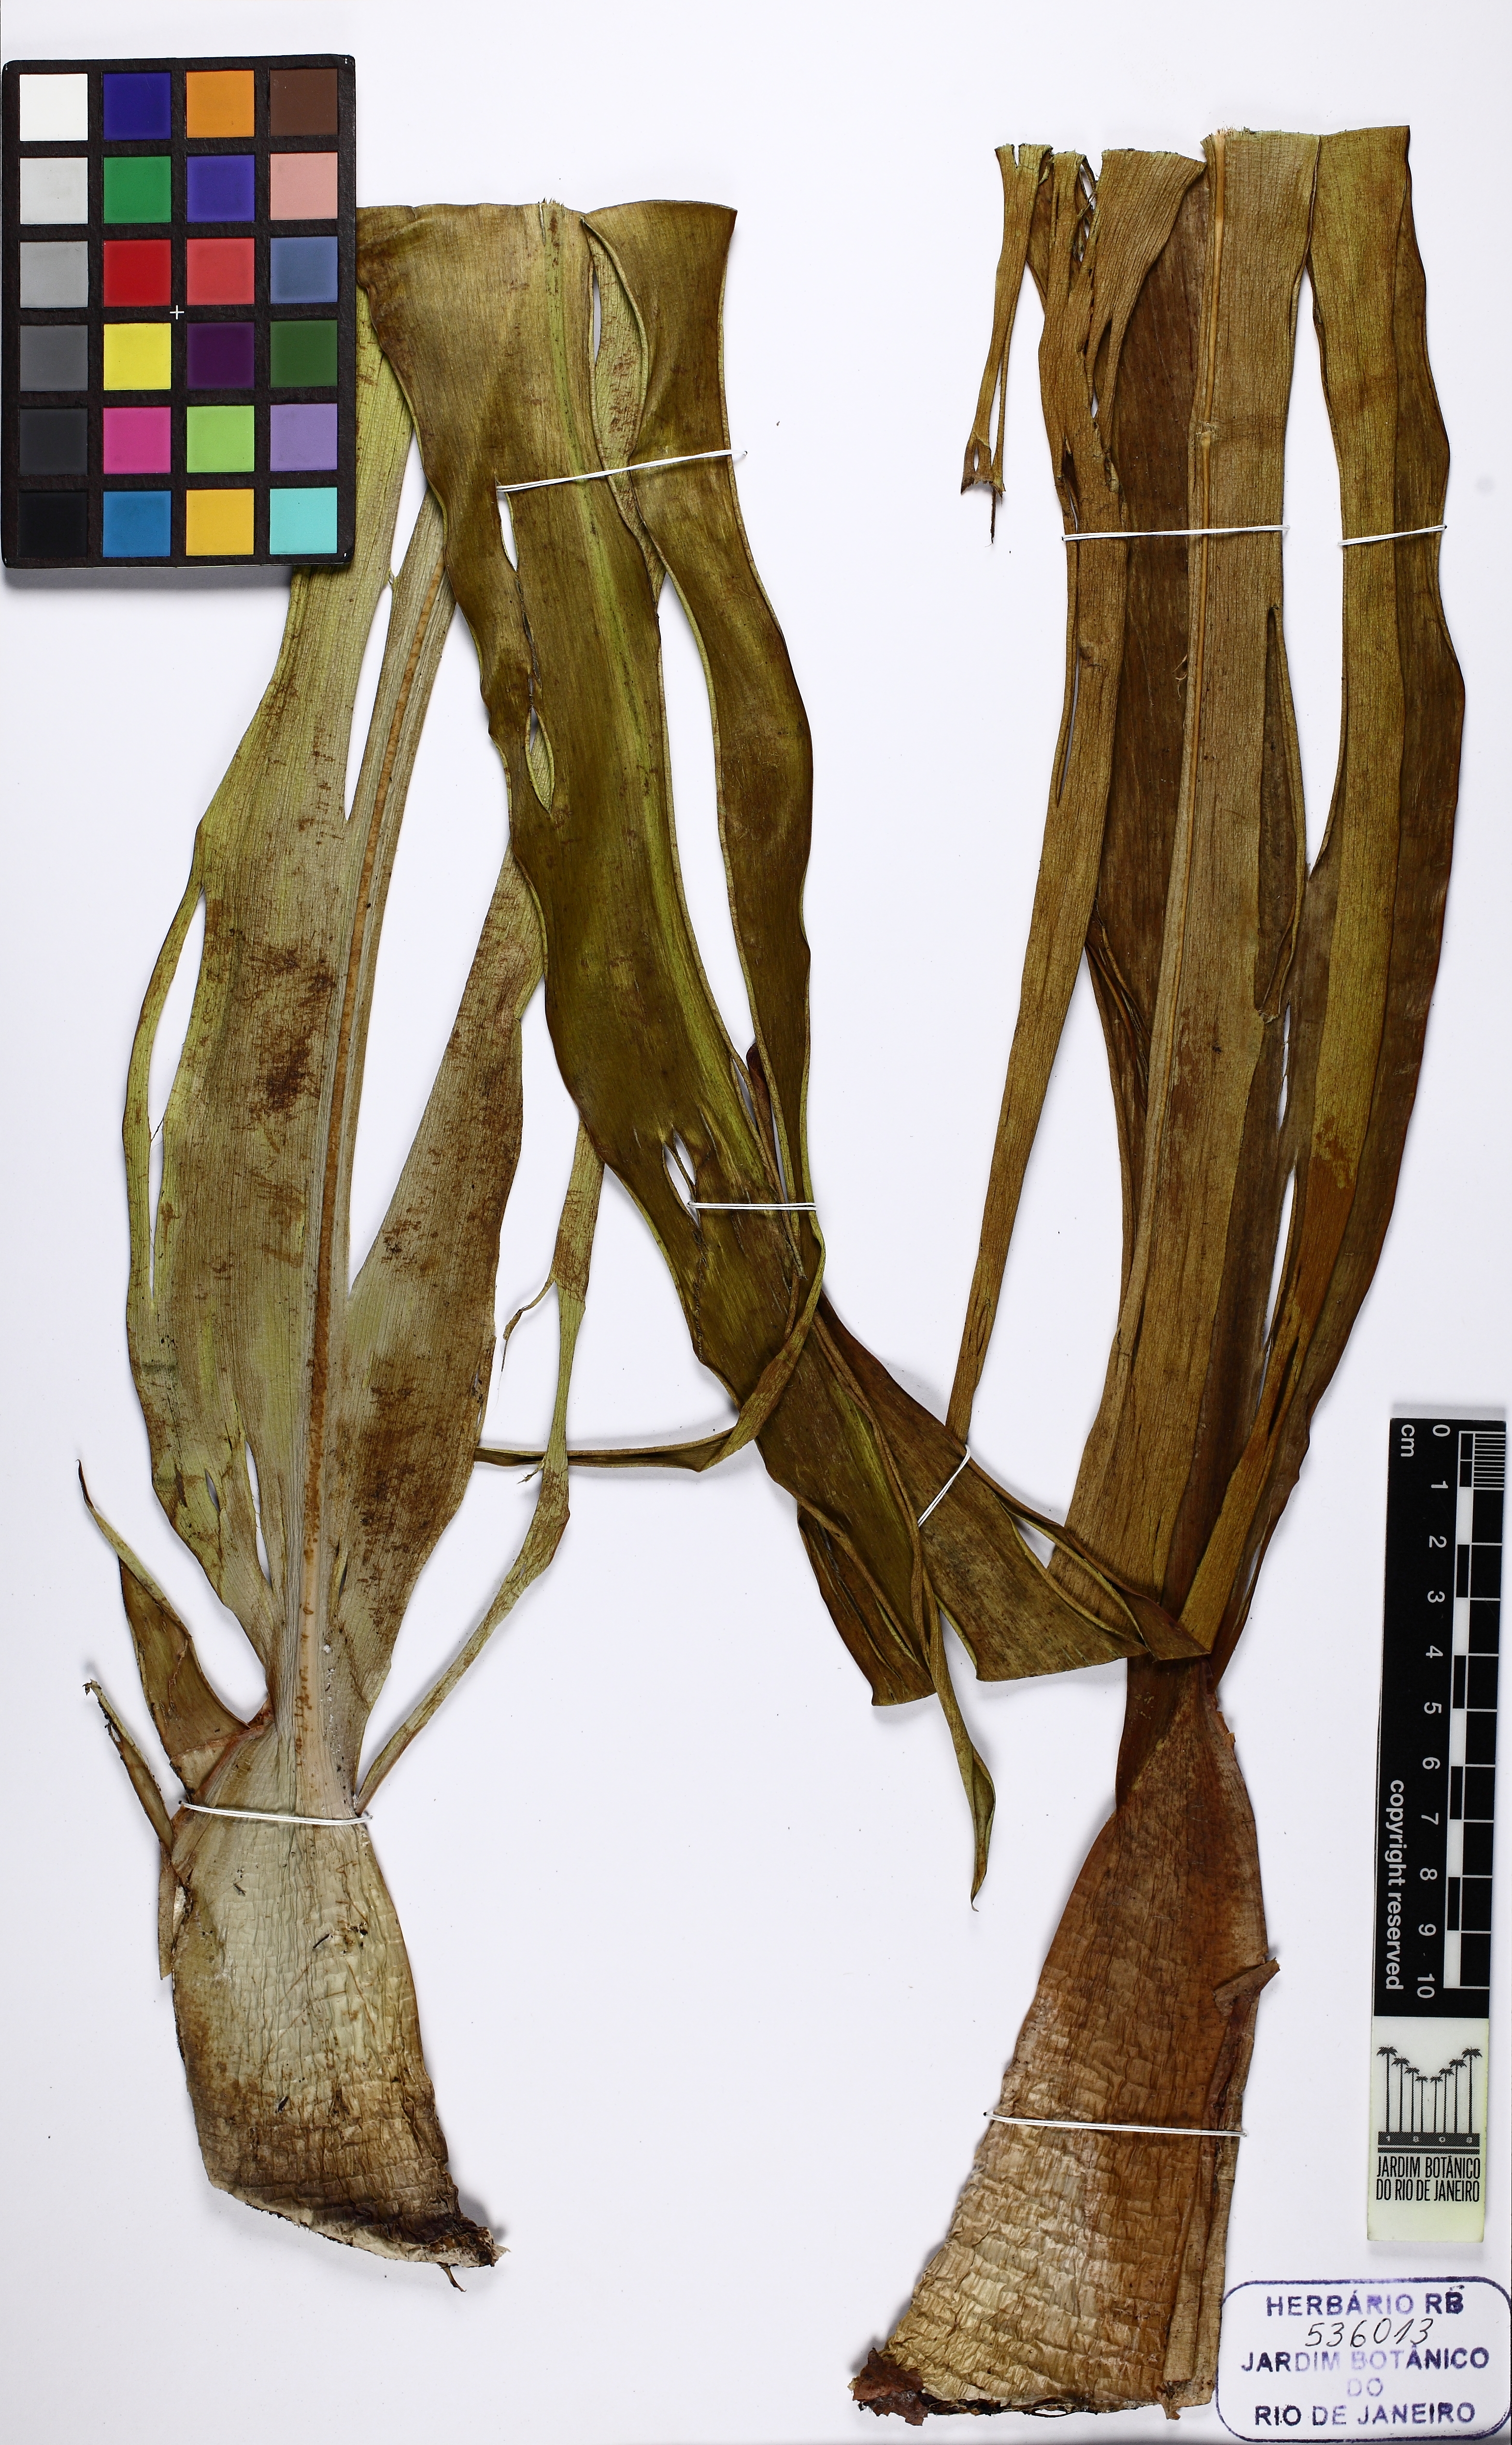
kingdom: Plantae
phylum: Tracheophyta
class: Liliopsida
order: Poales
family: Rapateaceae
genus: Saxofridericia
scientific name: Saxofridericia spongiosa
